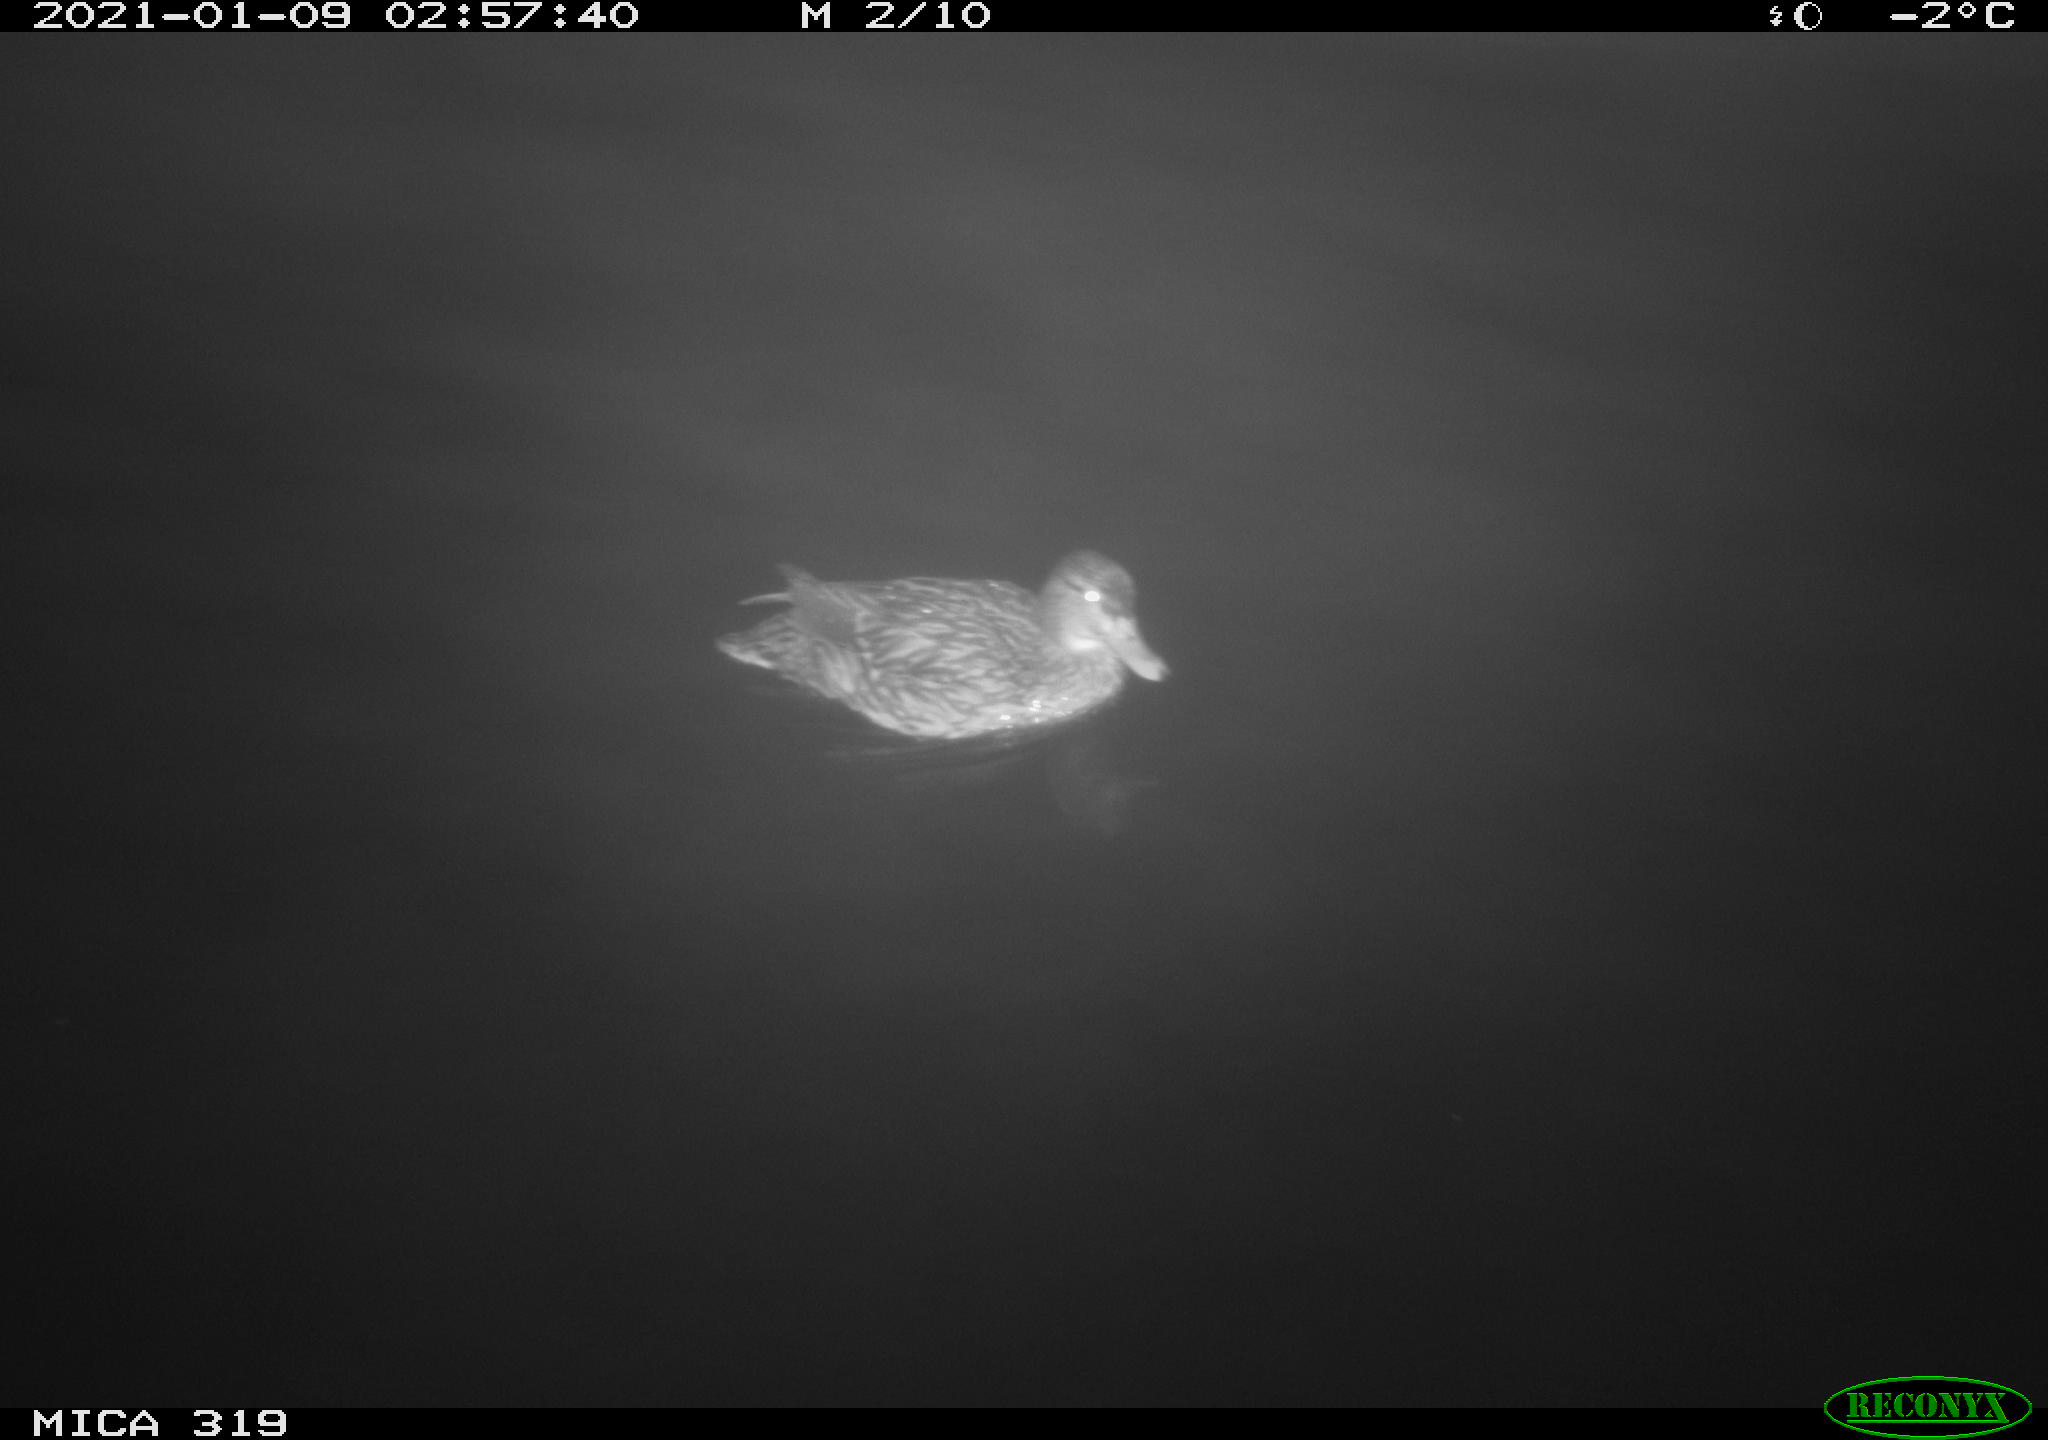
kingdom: Animalia
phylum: Chordata
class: Aves
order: Anseriformes
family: Anatidae
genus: Anas
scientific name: Anas platyrhynchos
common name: Mallard
